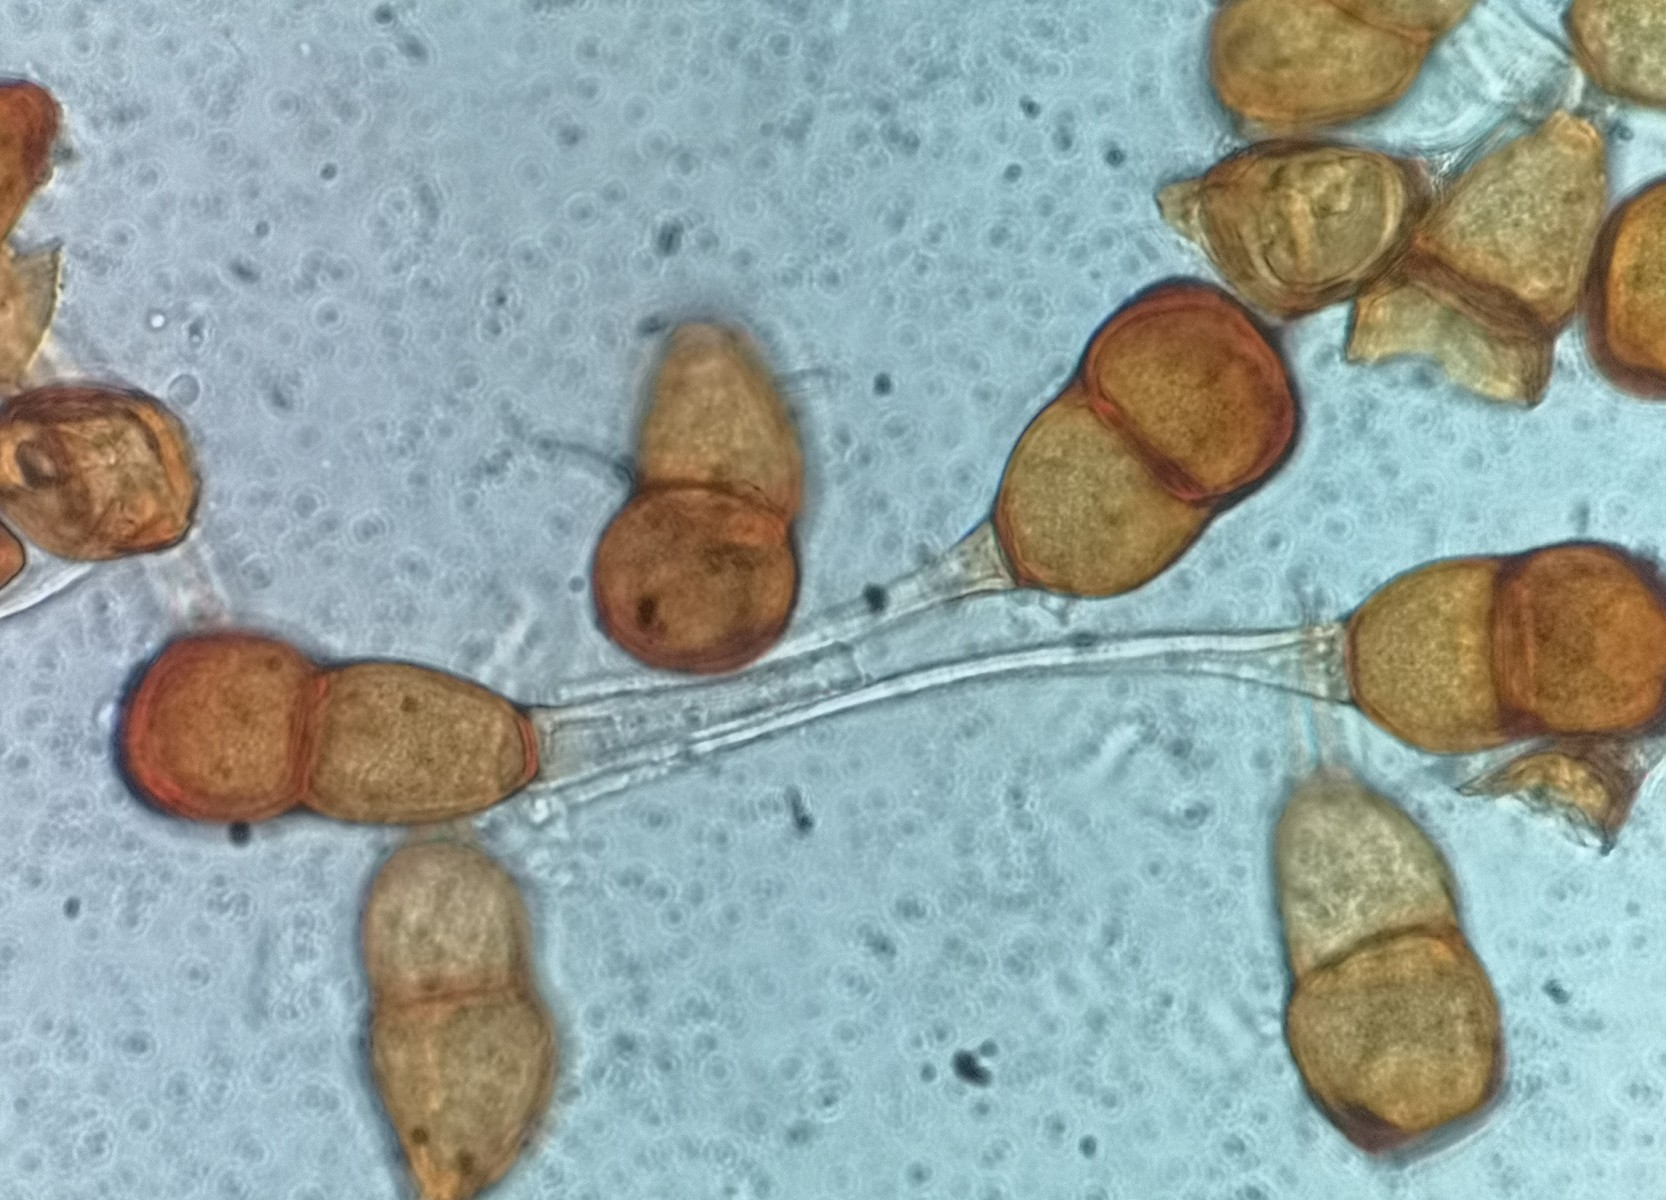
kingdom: Fungi
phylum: Basidiomycota
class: Pucciniomycetes
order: Pucciniales
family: Pucciniaceae
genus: Puccinia
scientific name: Puccinia tanaceti
